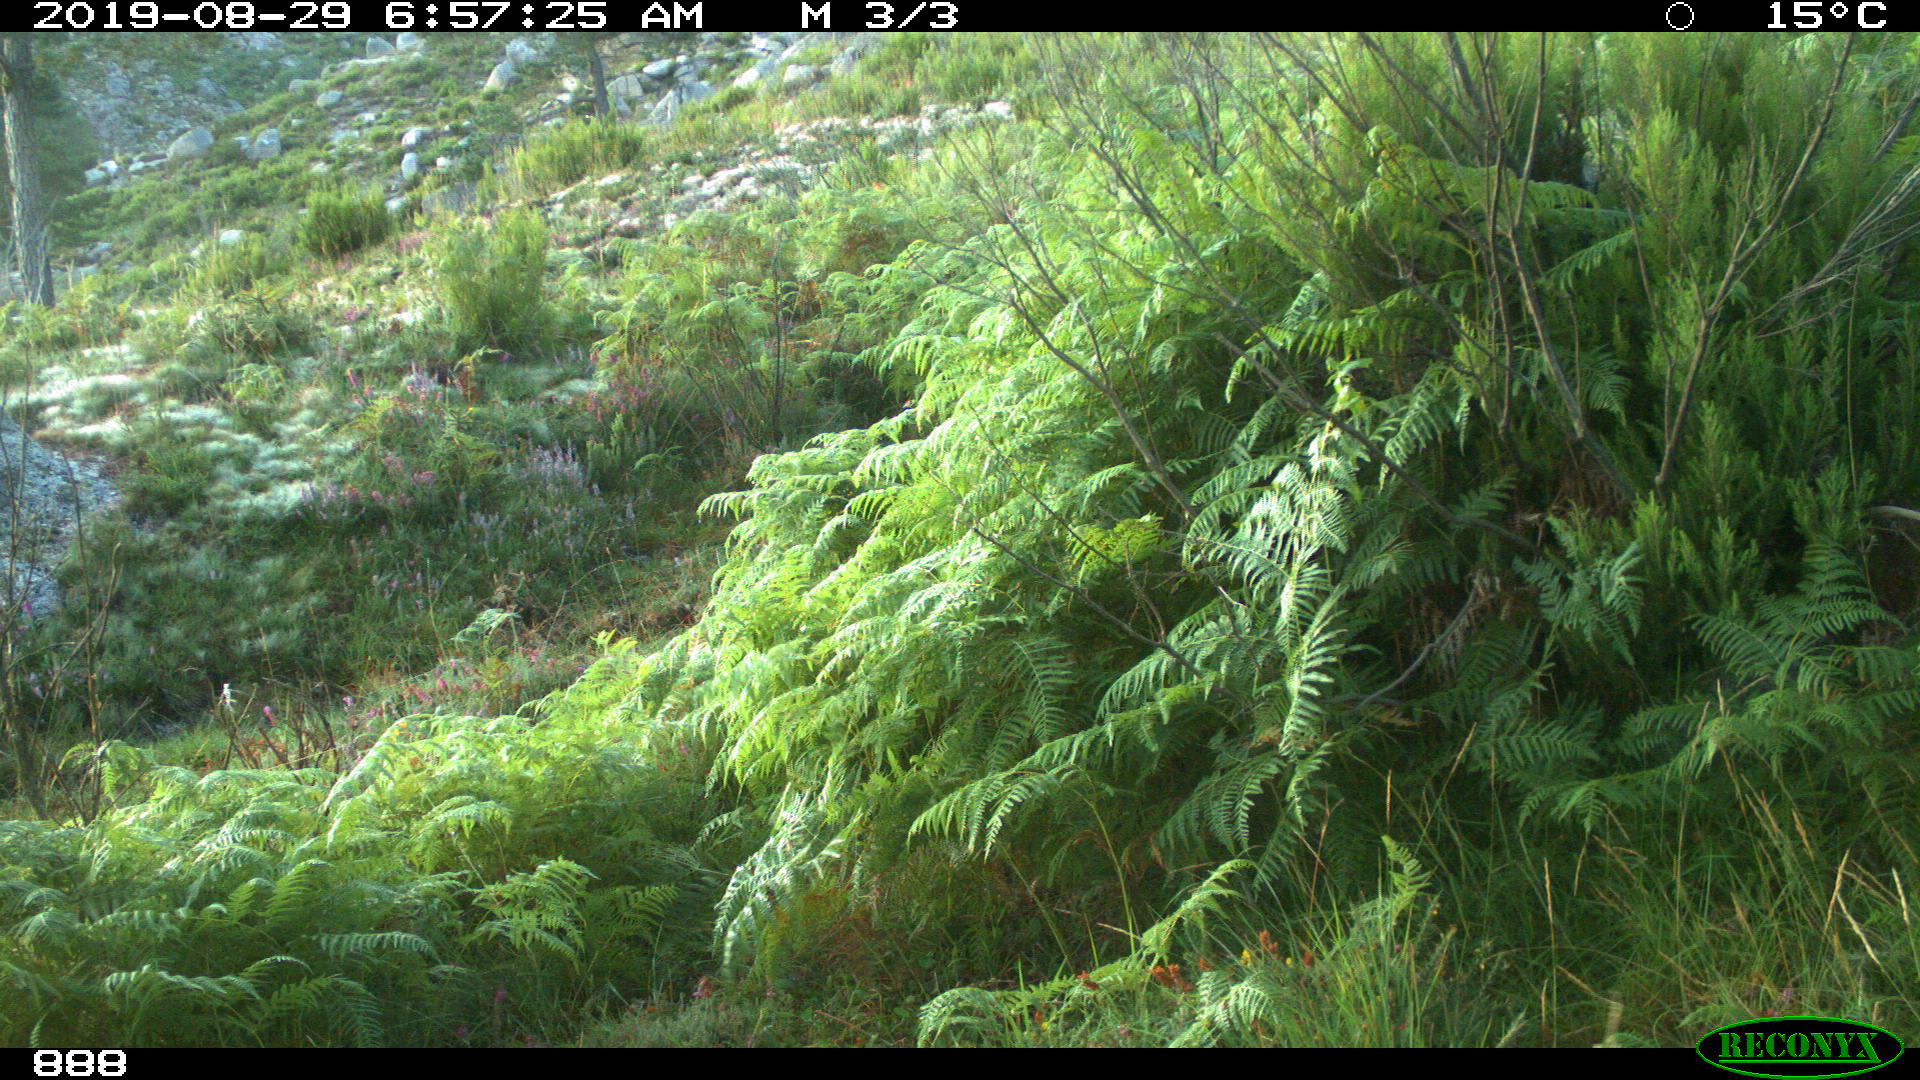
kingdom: Animalia
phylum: Chordata
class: Mammalia
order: Artiodactyla
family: Cervidae
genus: Capreolus
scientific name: Capreolus capreolus
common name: Western roe deer
